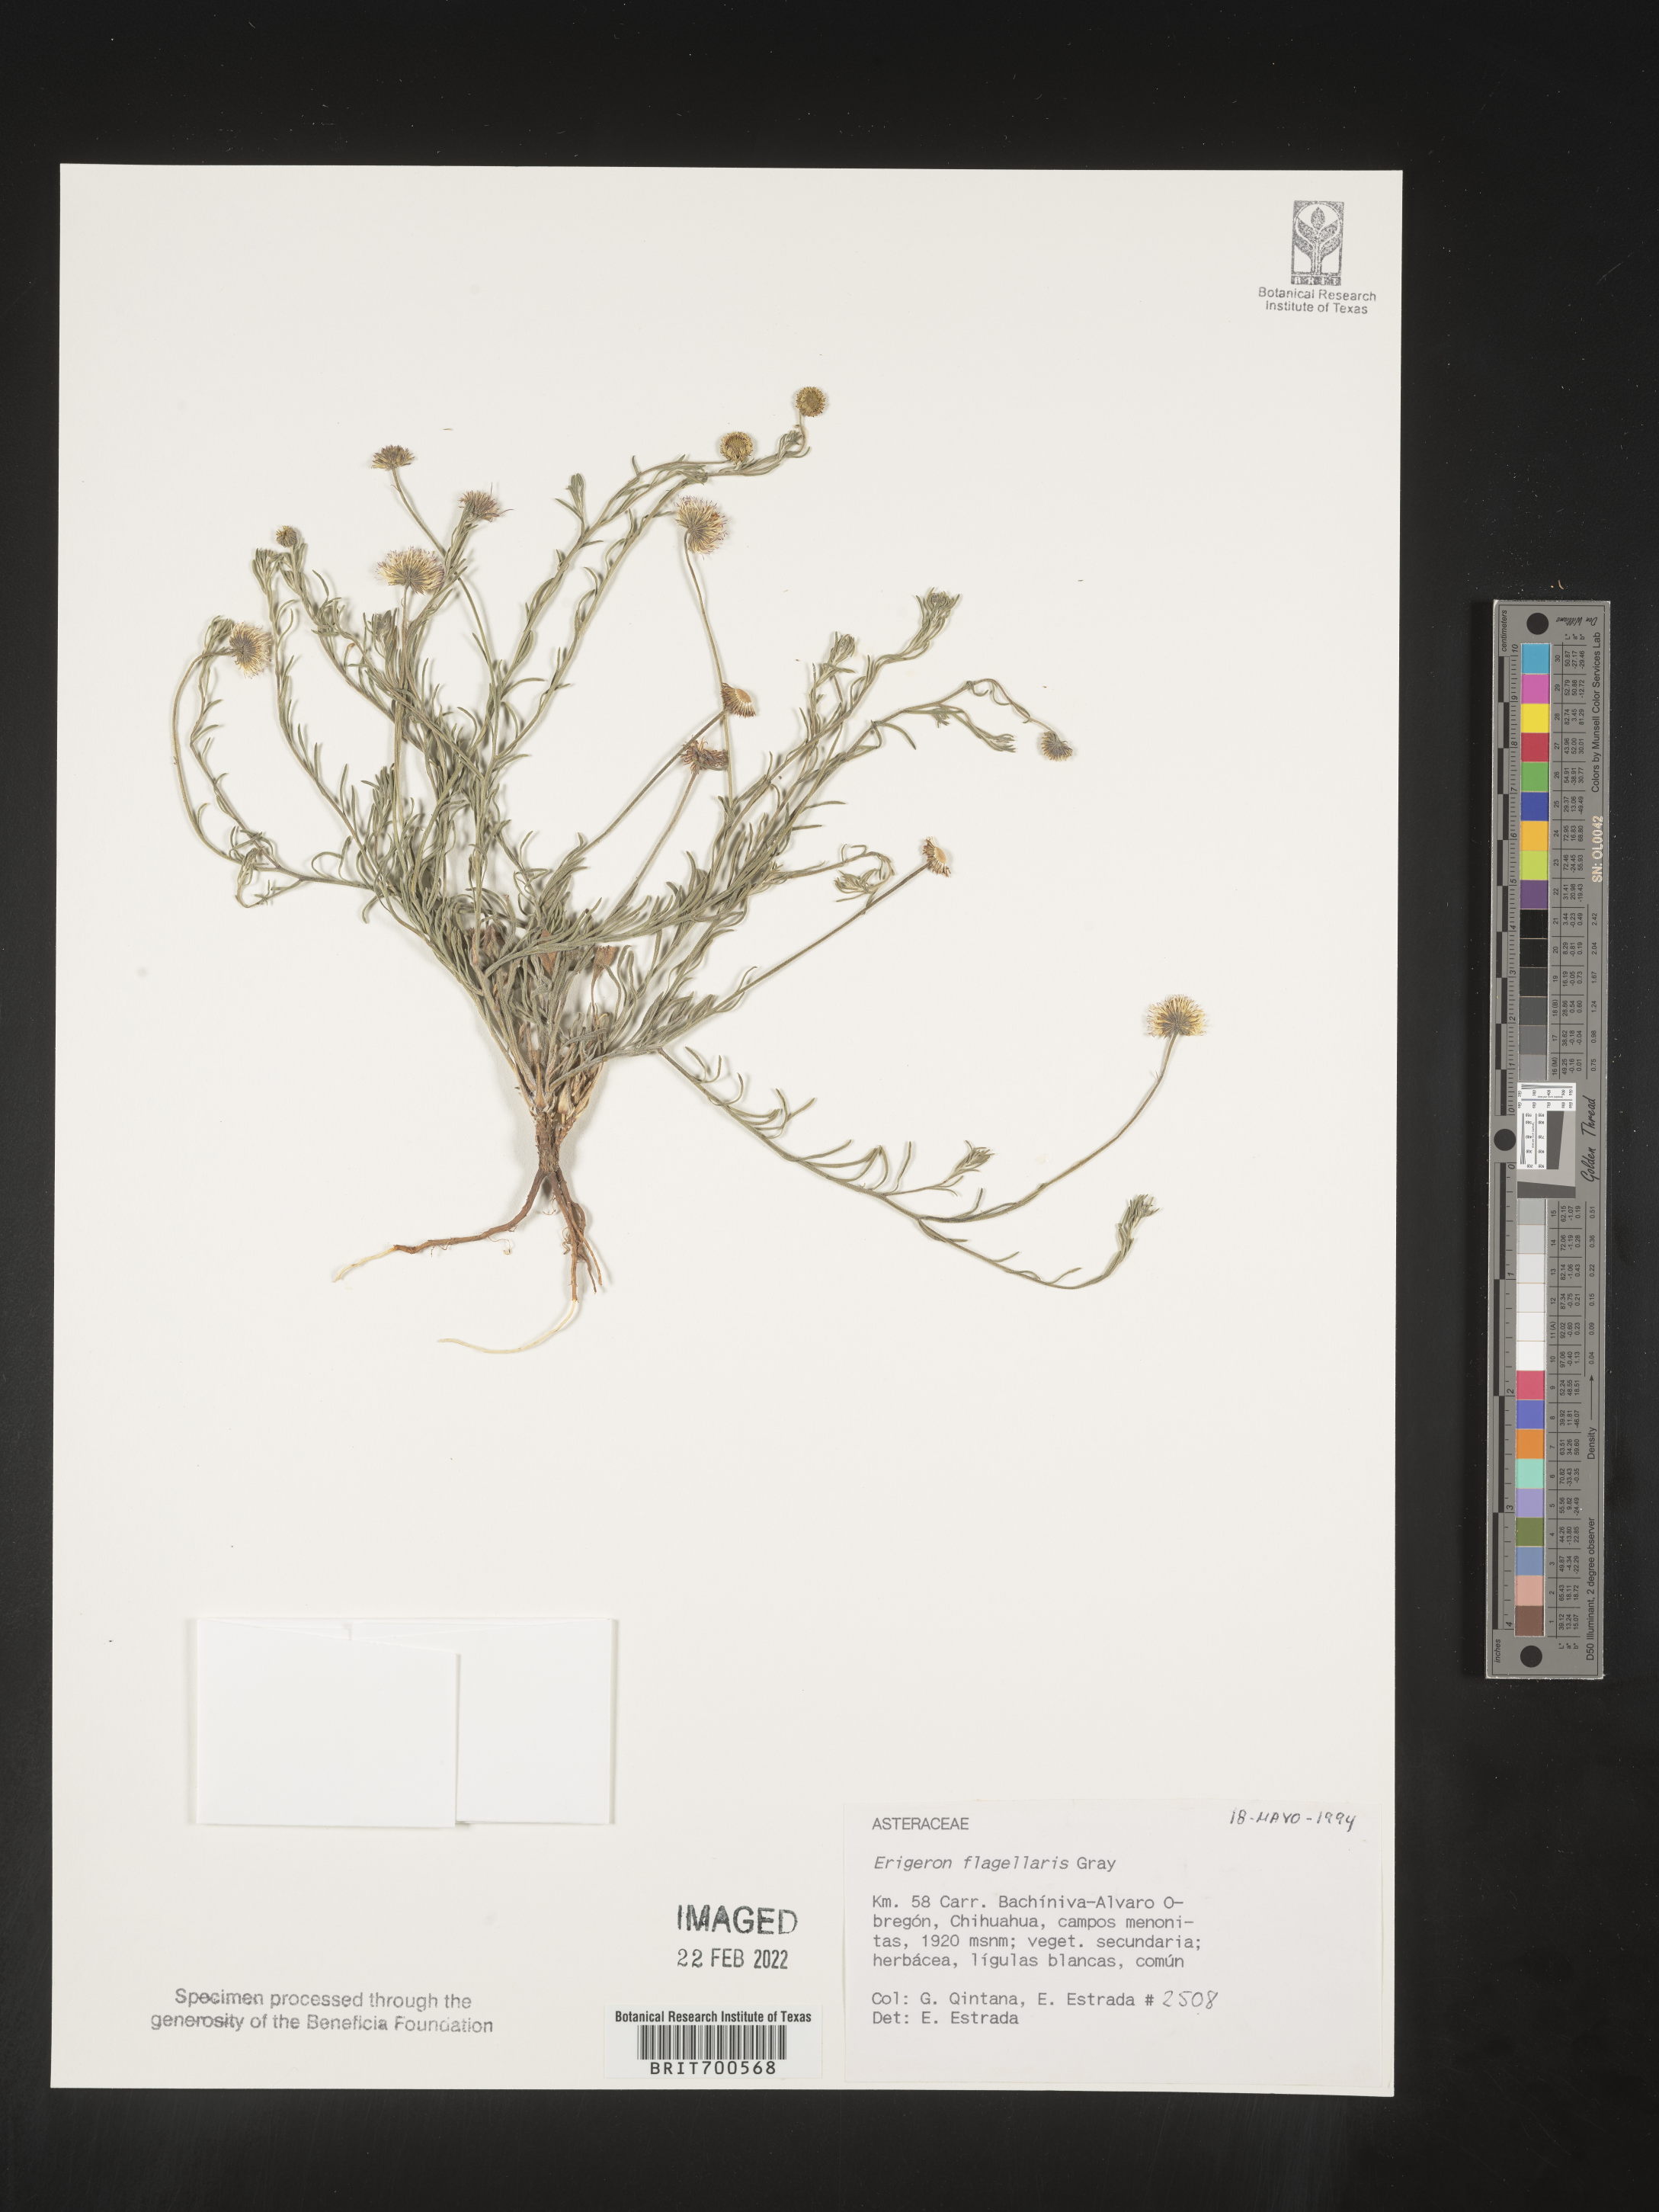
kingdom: Plantae
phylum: Tracheophyta
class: Magnoliopsida
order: Asterales
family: Asteraceae
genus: Erigeron
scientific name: Erigeron flagellaris
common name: Running fleabane
